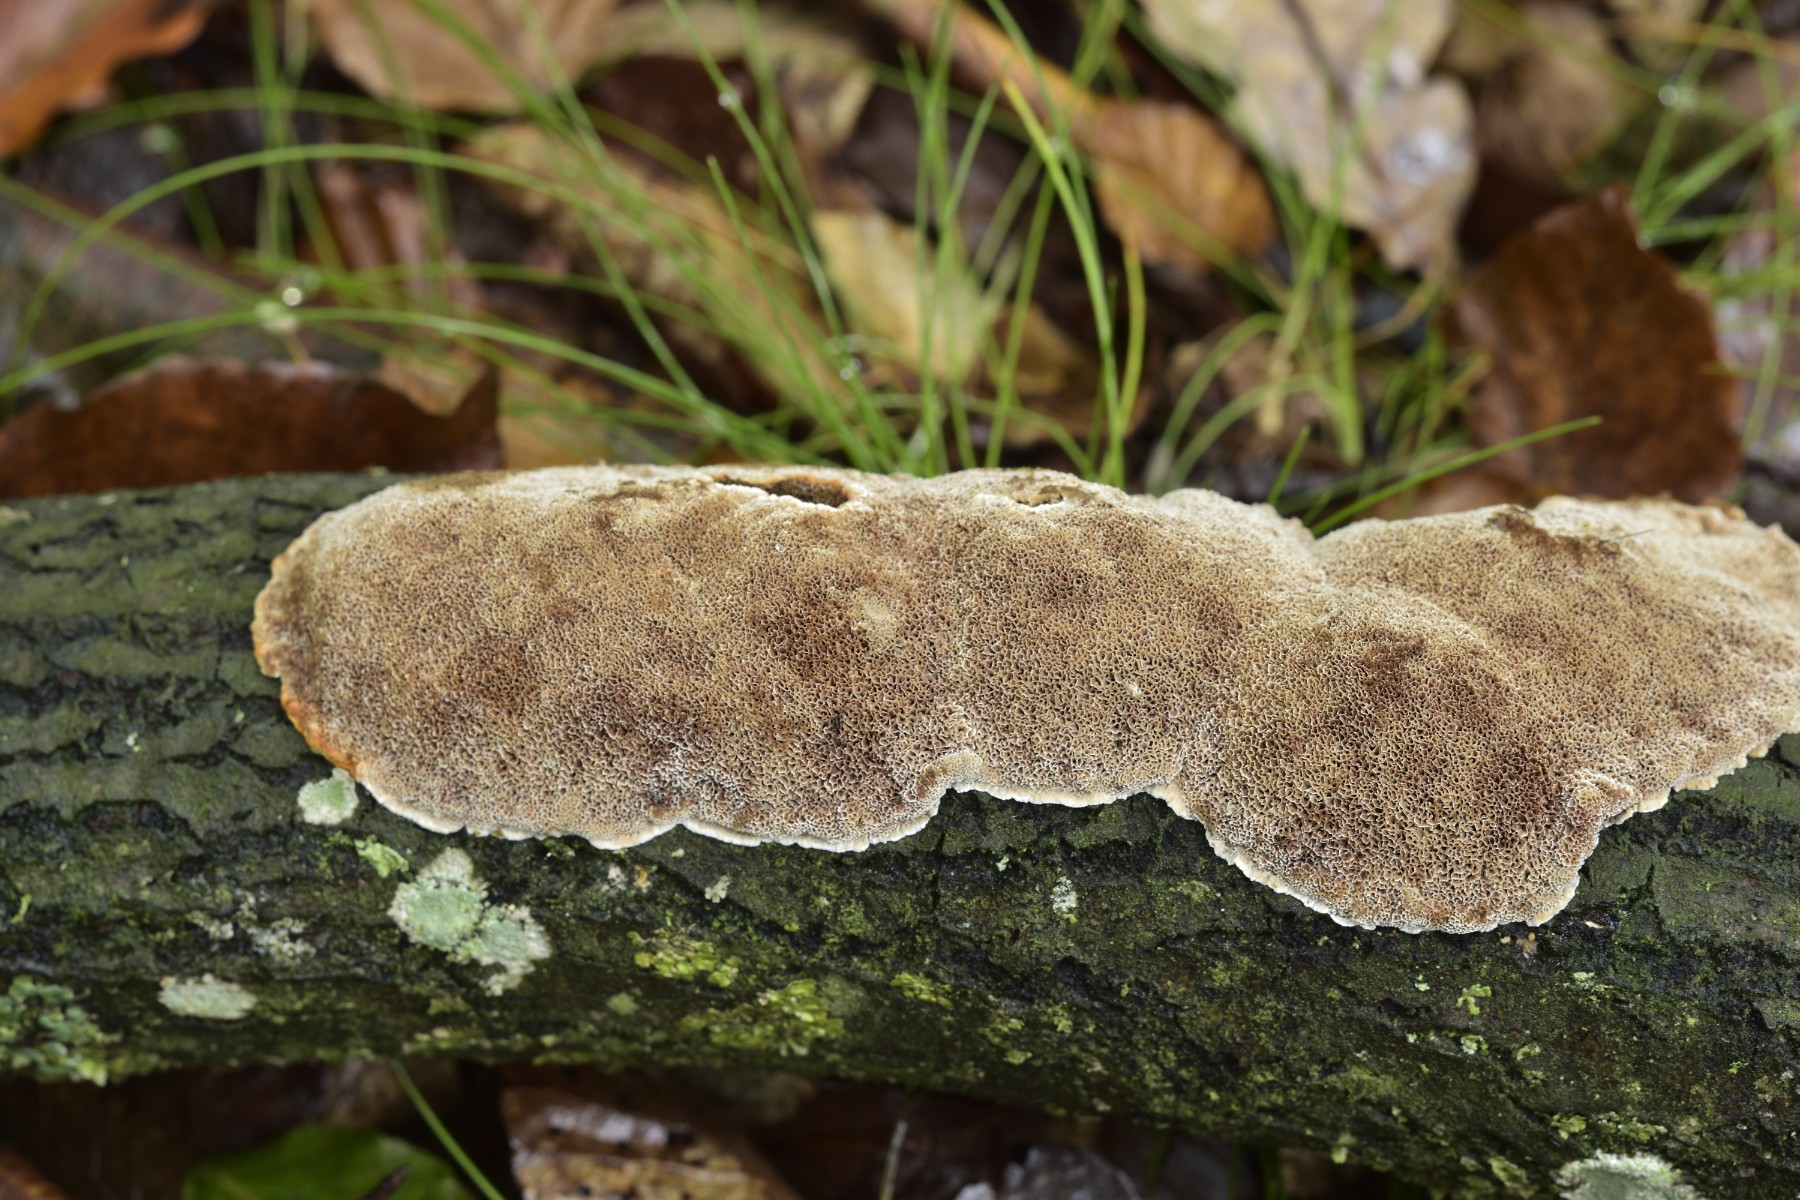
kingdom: Fungi
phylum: Basidiomycota
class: Agaricomycetes
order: Hymenochaetales
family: Hymenochaetaceae
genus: Mensularia
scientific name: Mensularia nodulosa
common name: bøge-spejlporesvamp
